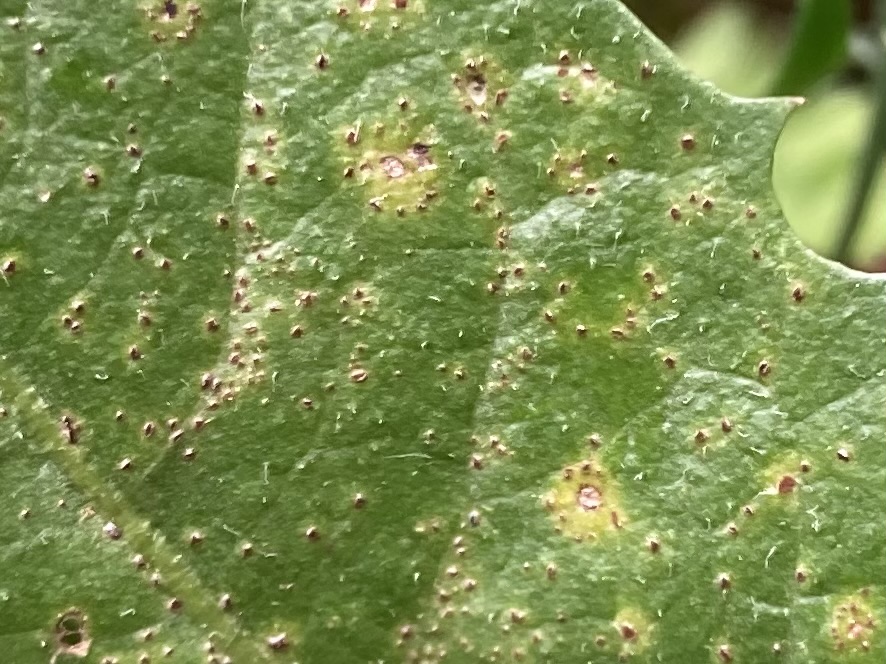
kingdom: Fungi
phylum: Basidiomycota
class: Pucciniomycetes
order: Pucciniales
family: Pucciniaceae
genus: Puccinia
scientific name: Puccinia hieracii
